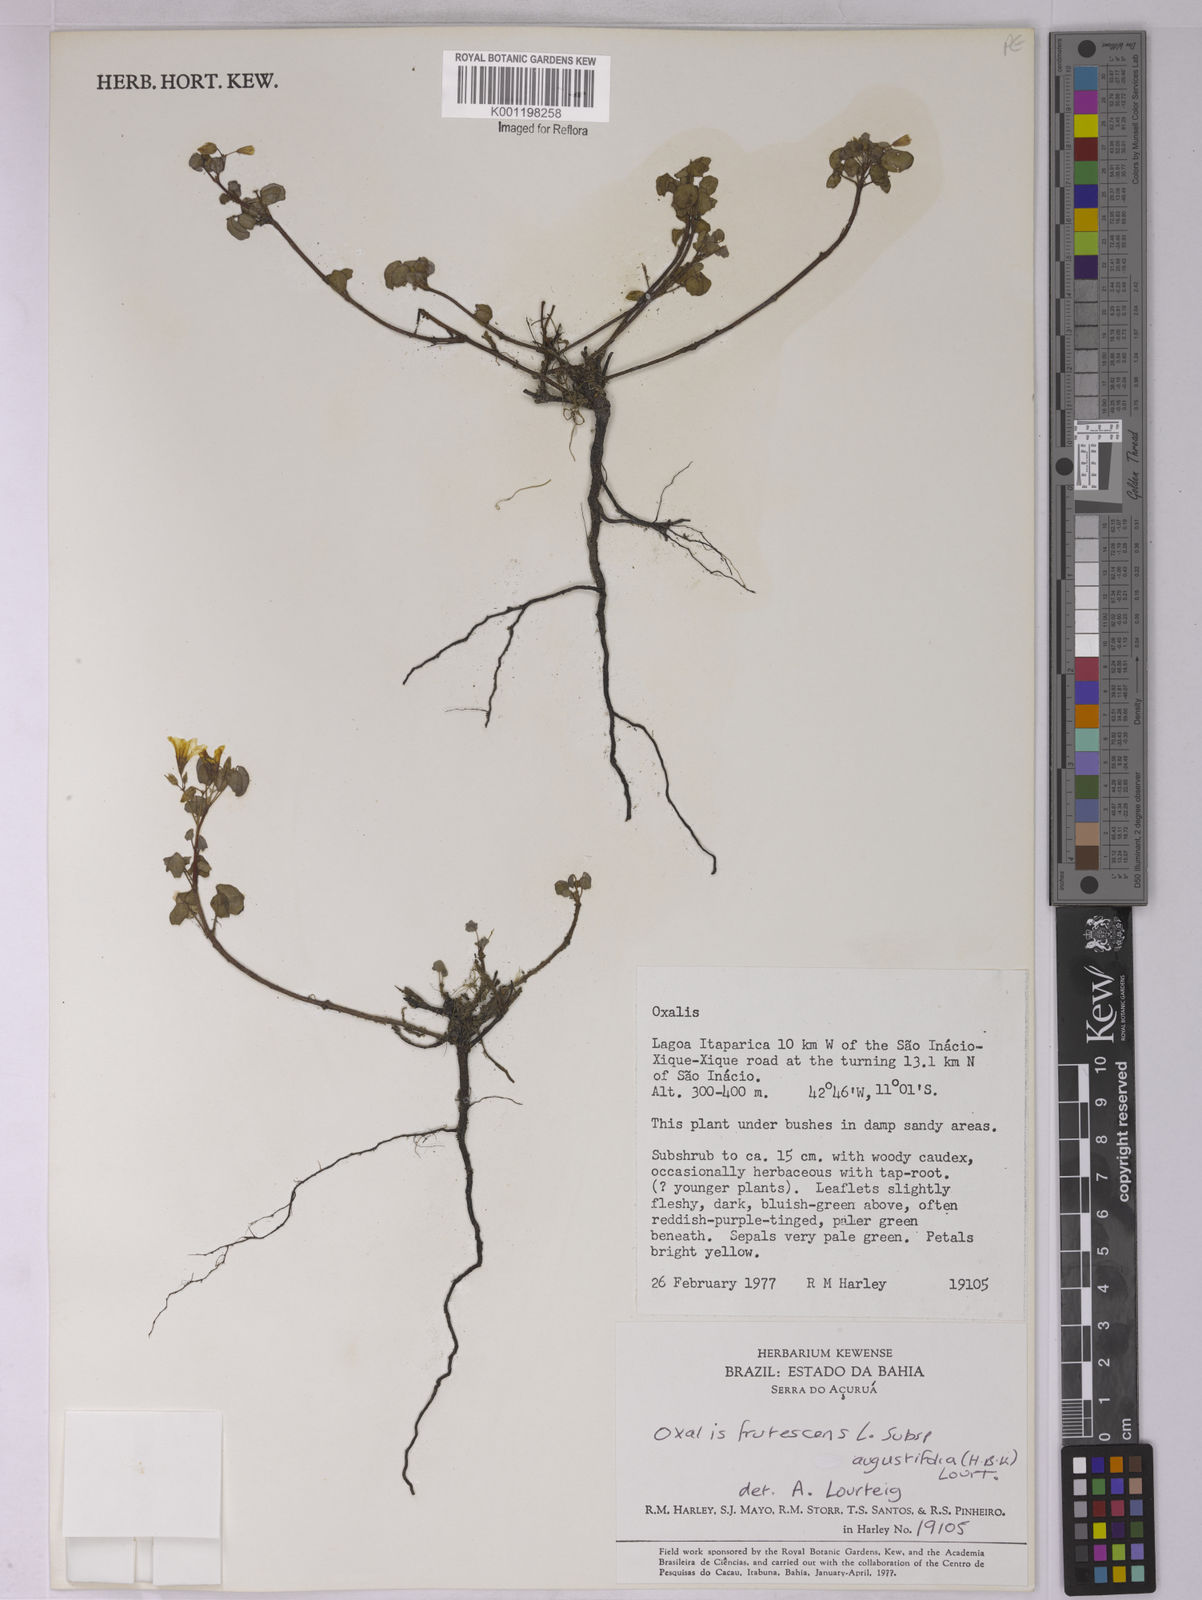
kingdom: Plantae
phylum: Tracheophyta
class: Magnoliopsida
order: Oxalidales
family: Oxalidaceae
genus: Oxalis
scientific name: Oxalis frutescens
